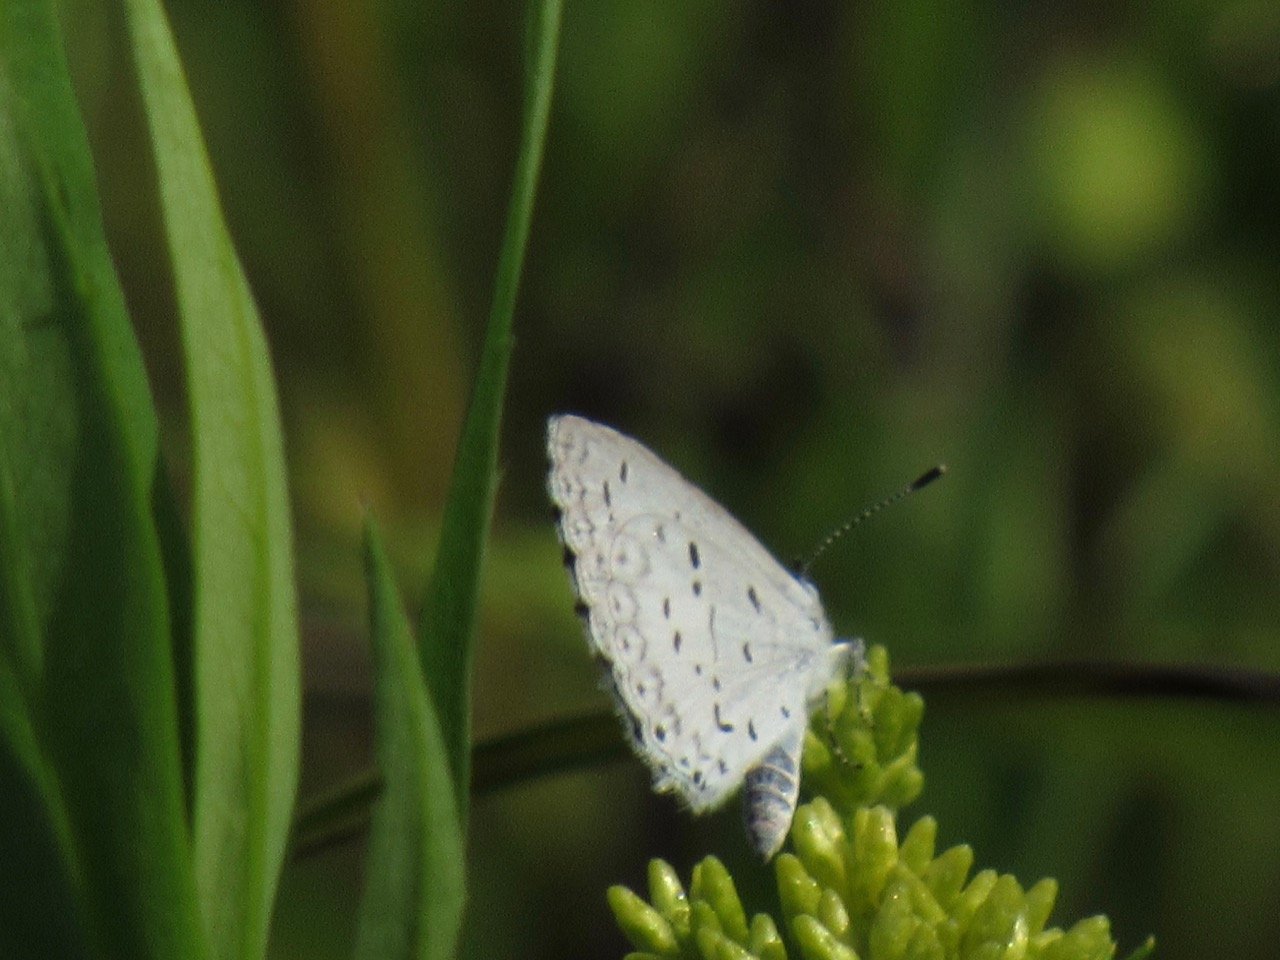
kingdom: Animalia
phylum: Arthropoda
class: Insecta
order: Lepidoptera
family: Lycaenidae
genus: Celastrina
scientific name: Celastrina
